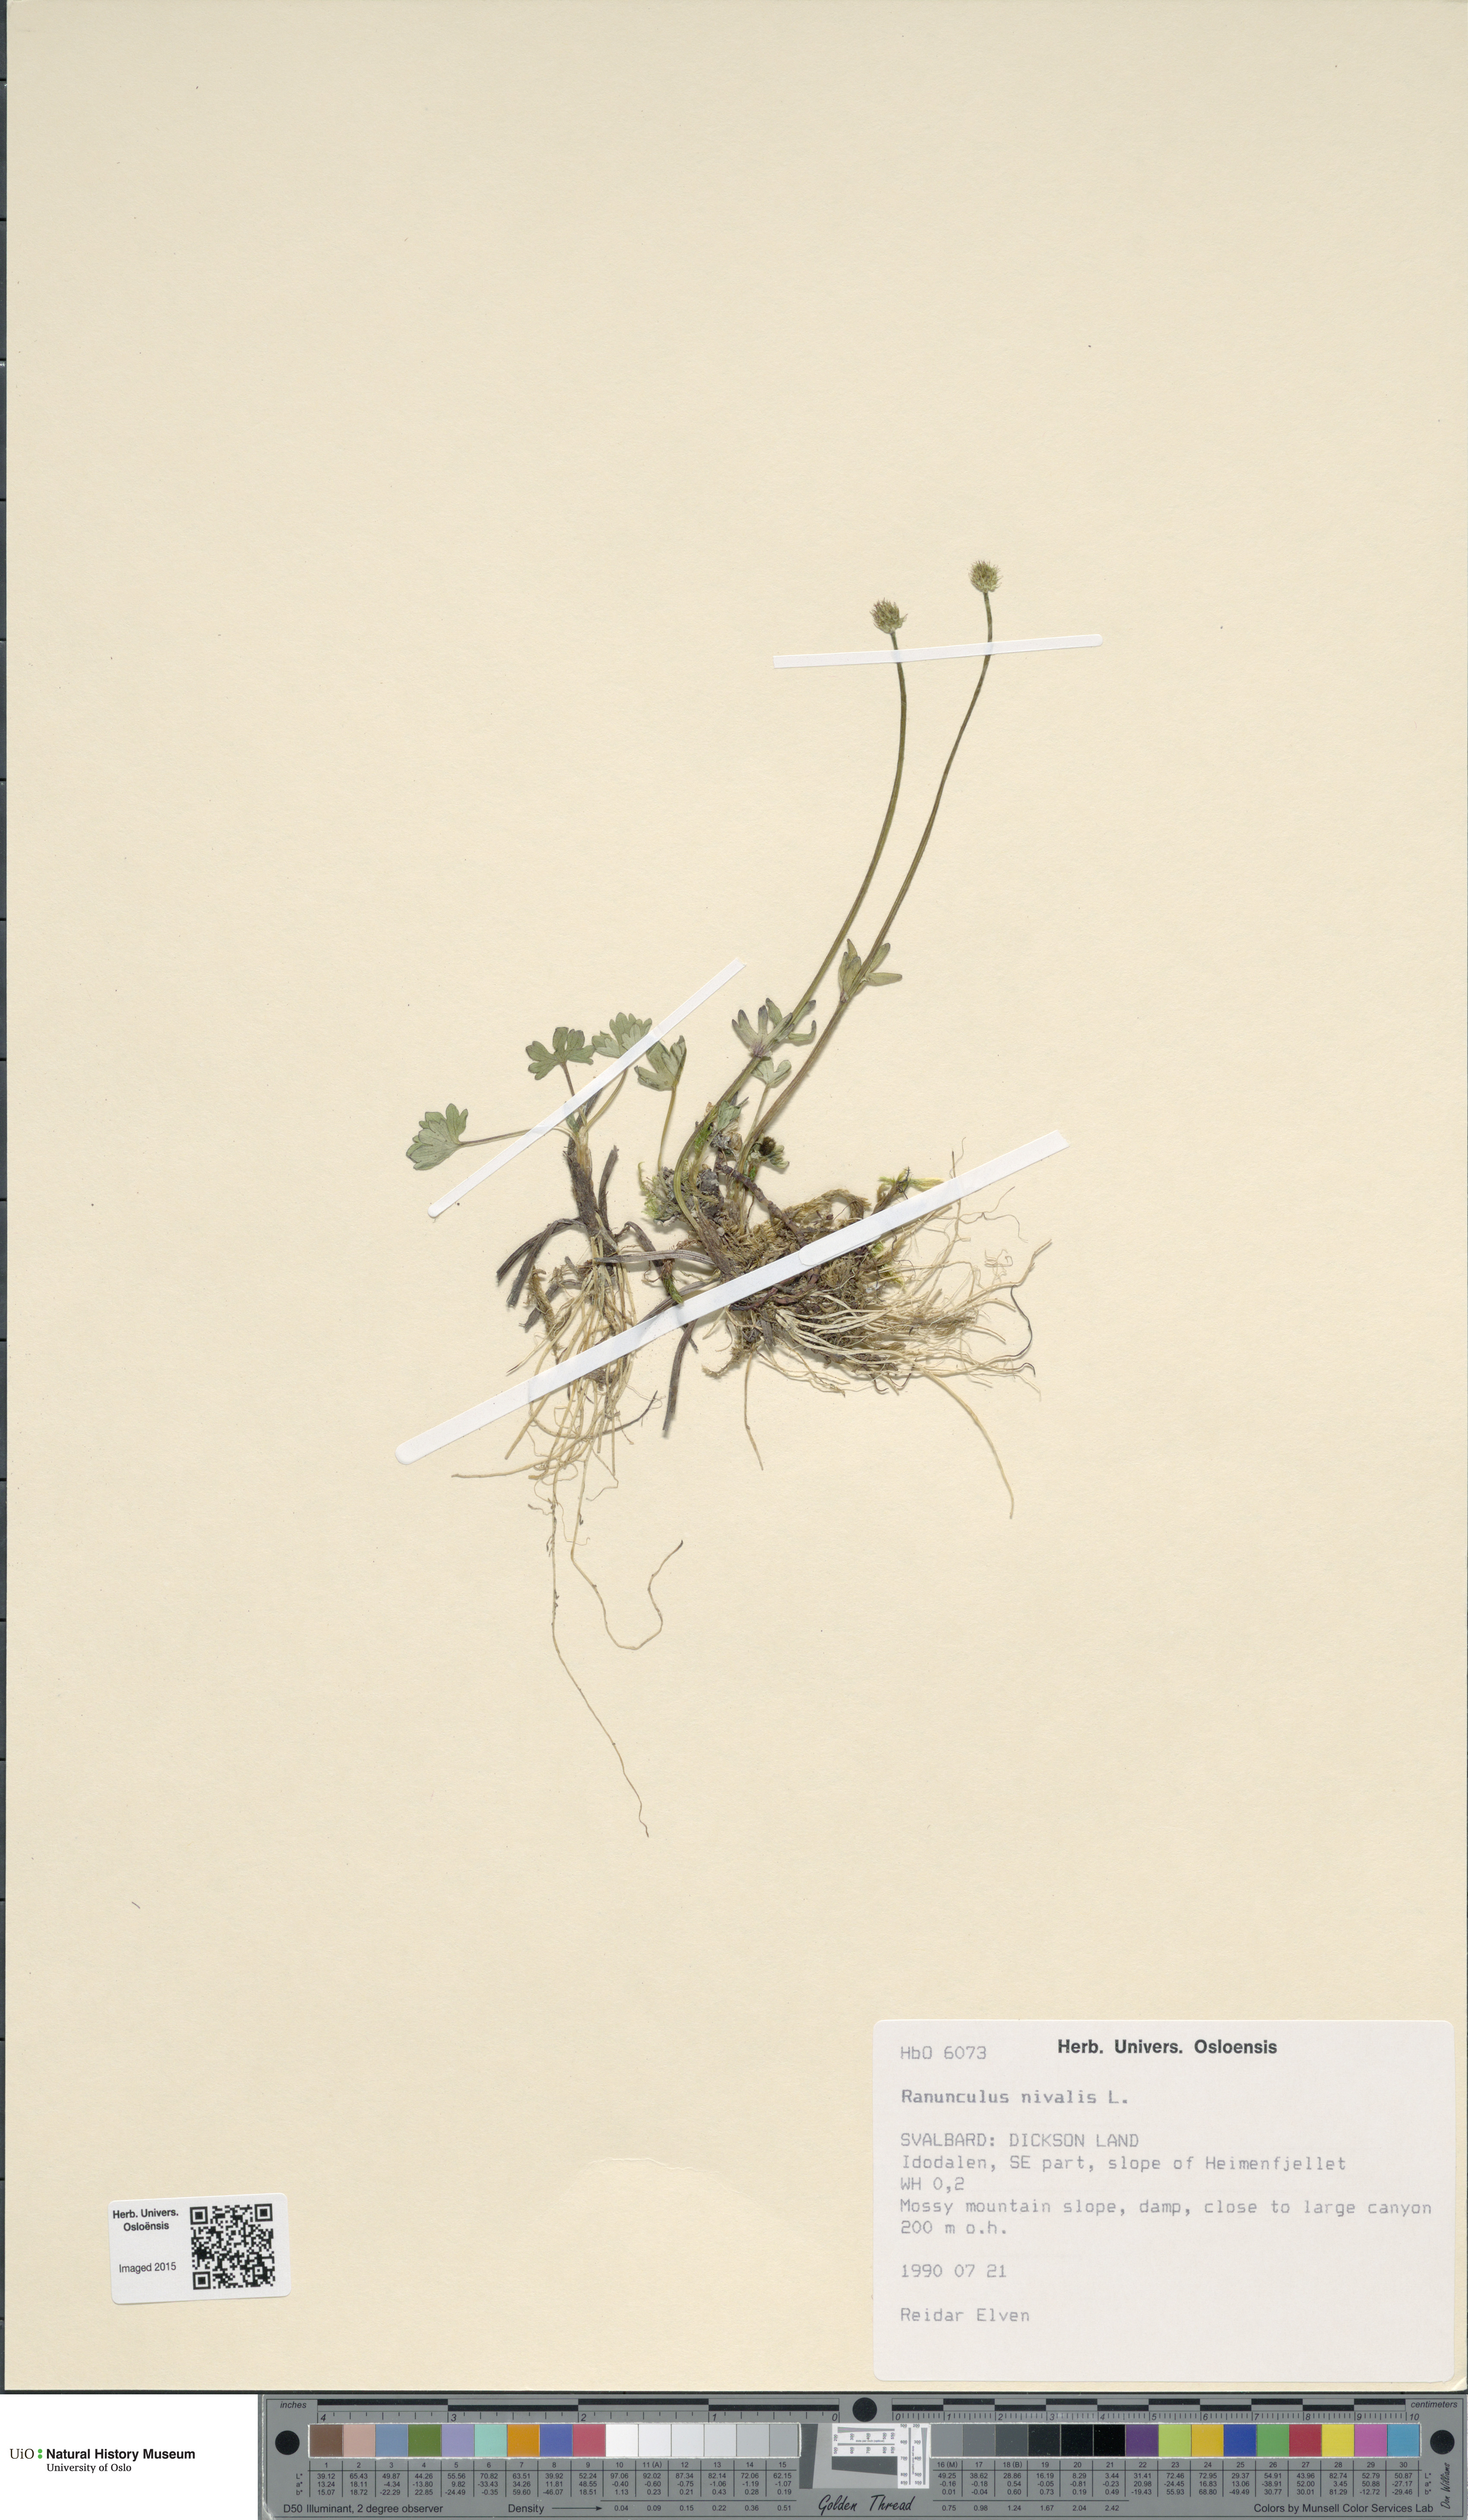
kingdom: Plantae
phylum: Tracheophyta
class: Magnoliopsida
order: Ranunculales
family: Ranunculaceae
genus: Ranunculus
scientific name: Ranunculus nivalis
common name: Snow buttercup
